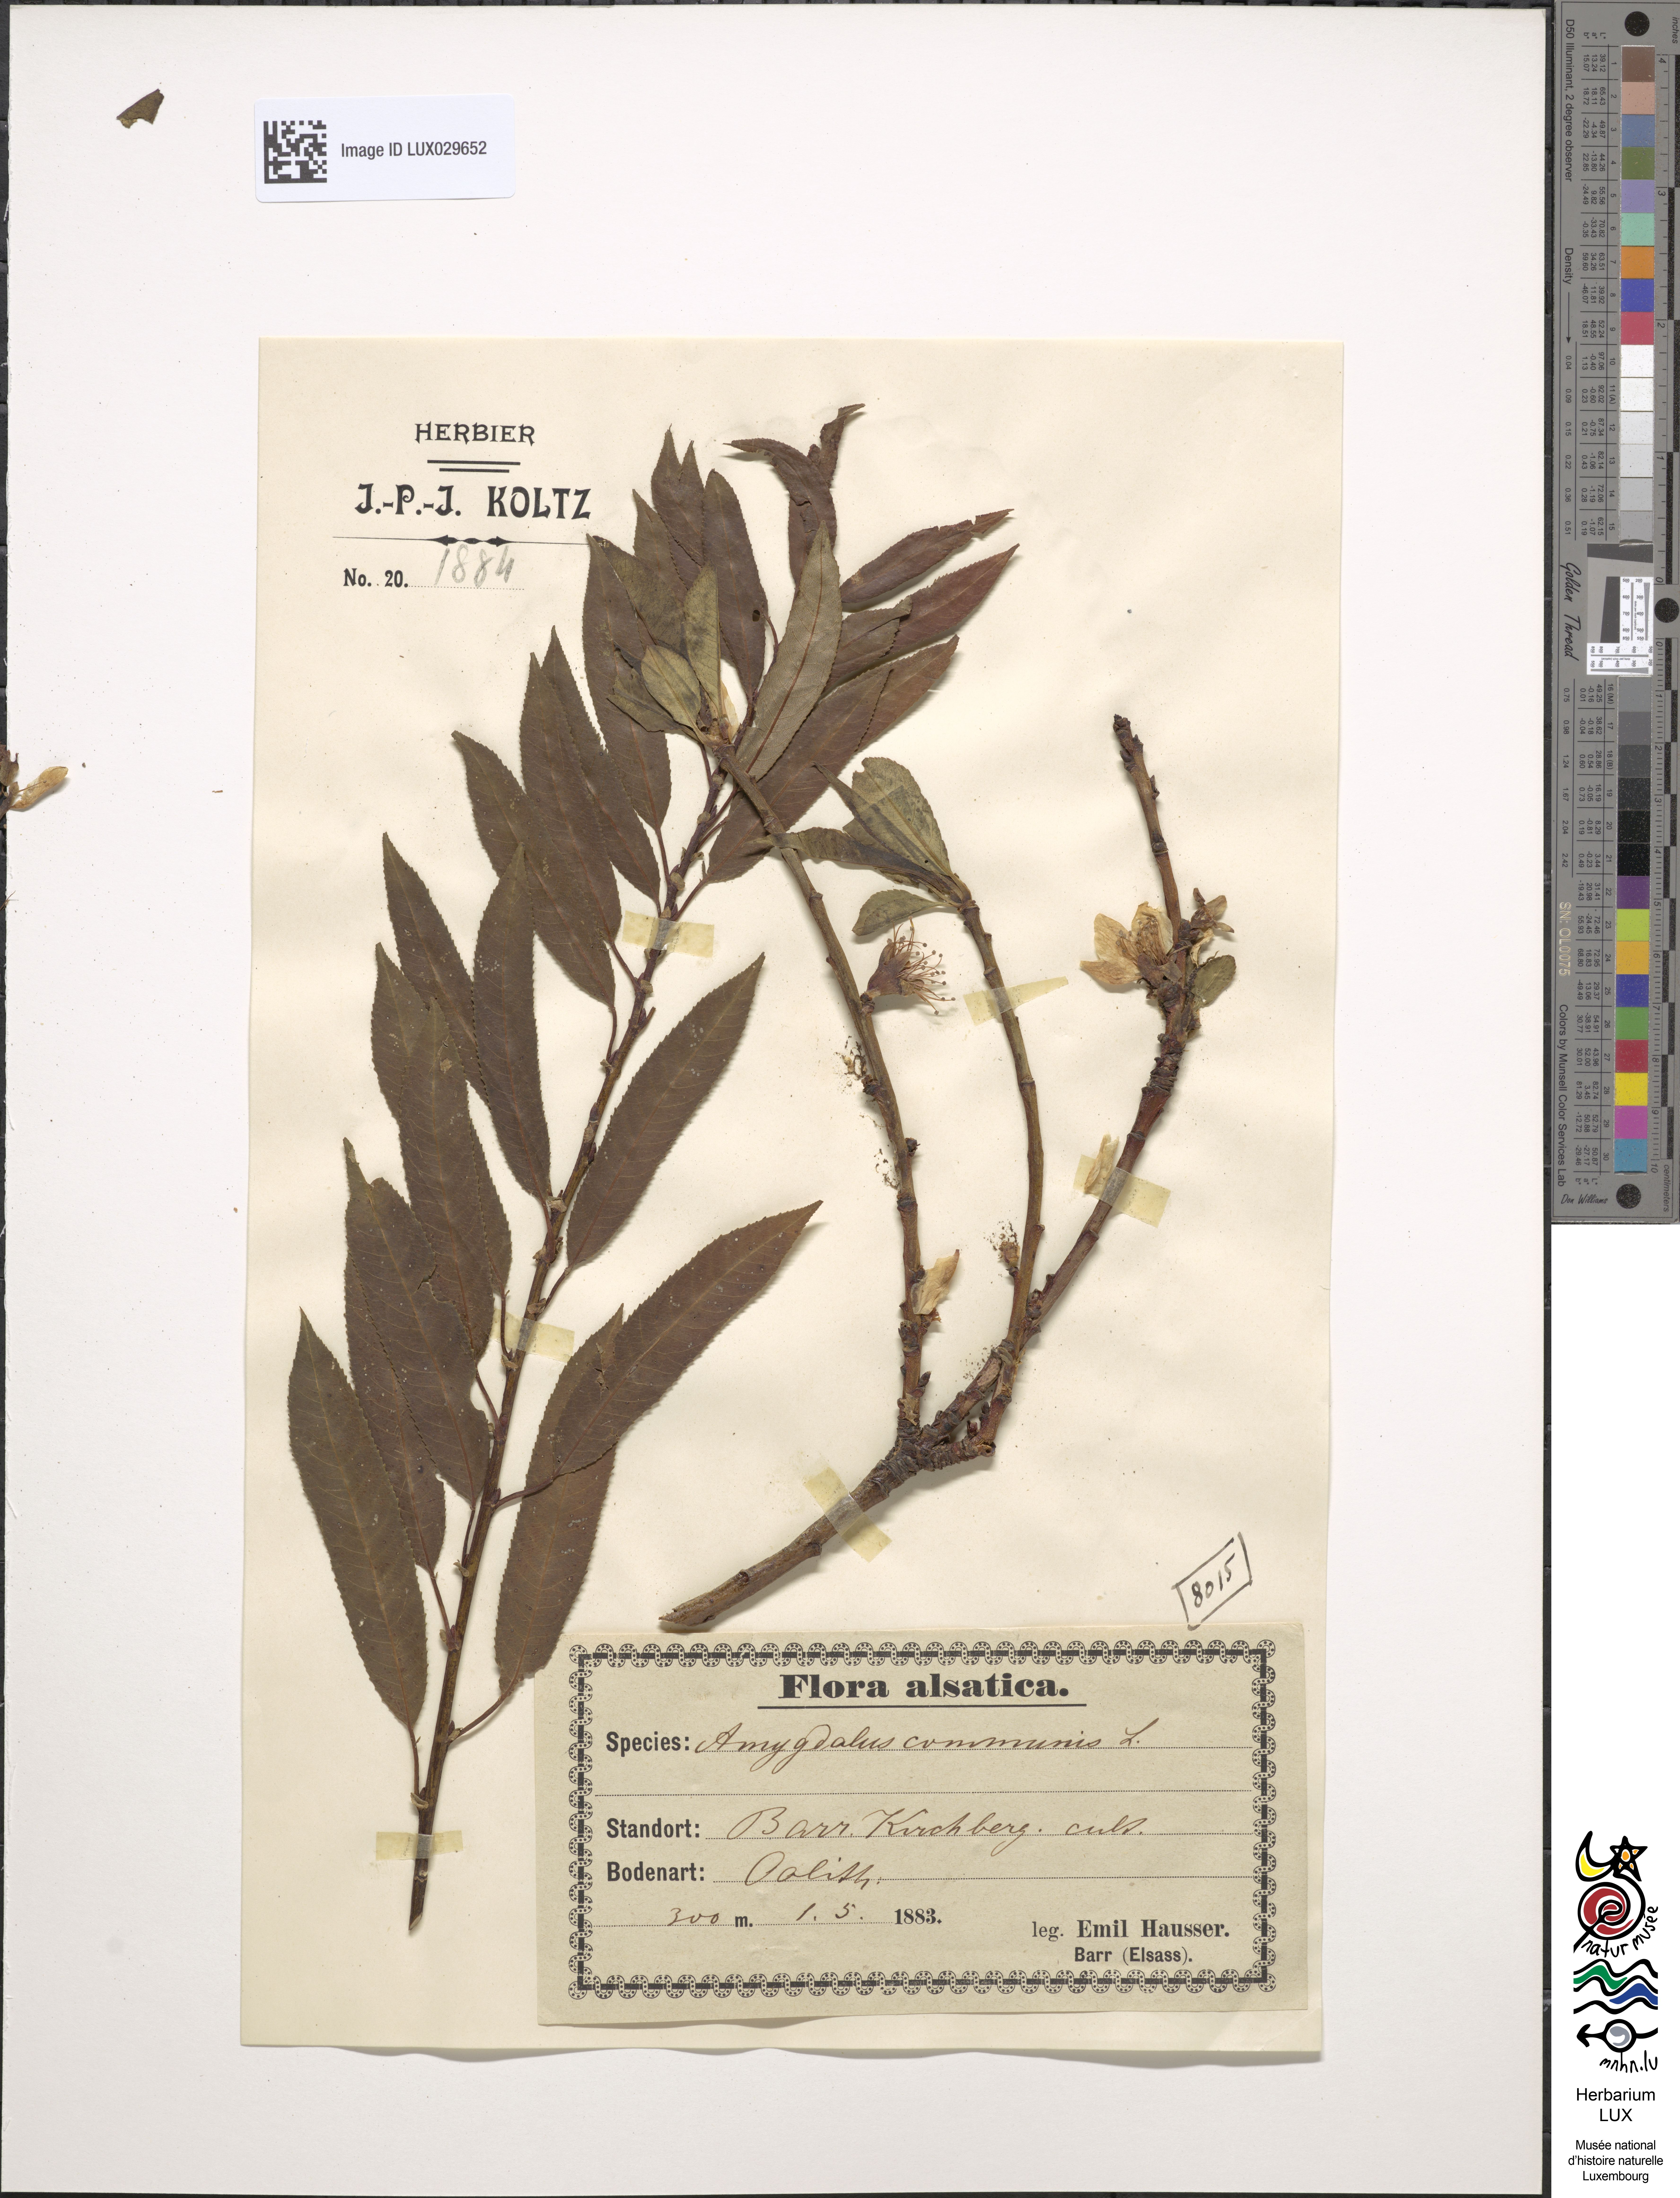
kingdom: Plantae
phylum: Tracheophyta
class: Magnoliopsida
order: Rosales
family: Rosaceae
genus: Prunus
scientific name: Prunus amygdalus
